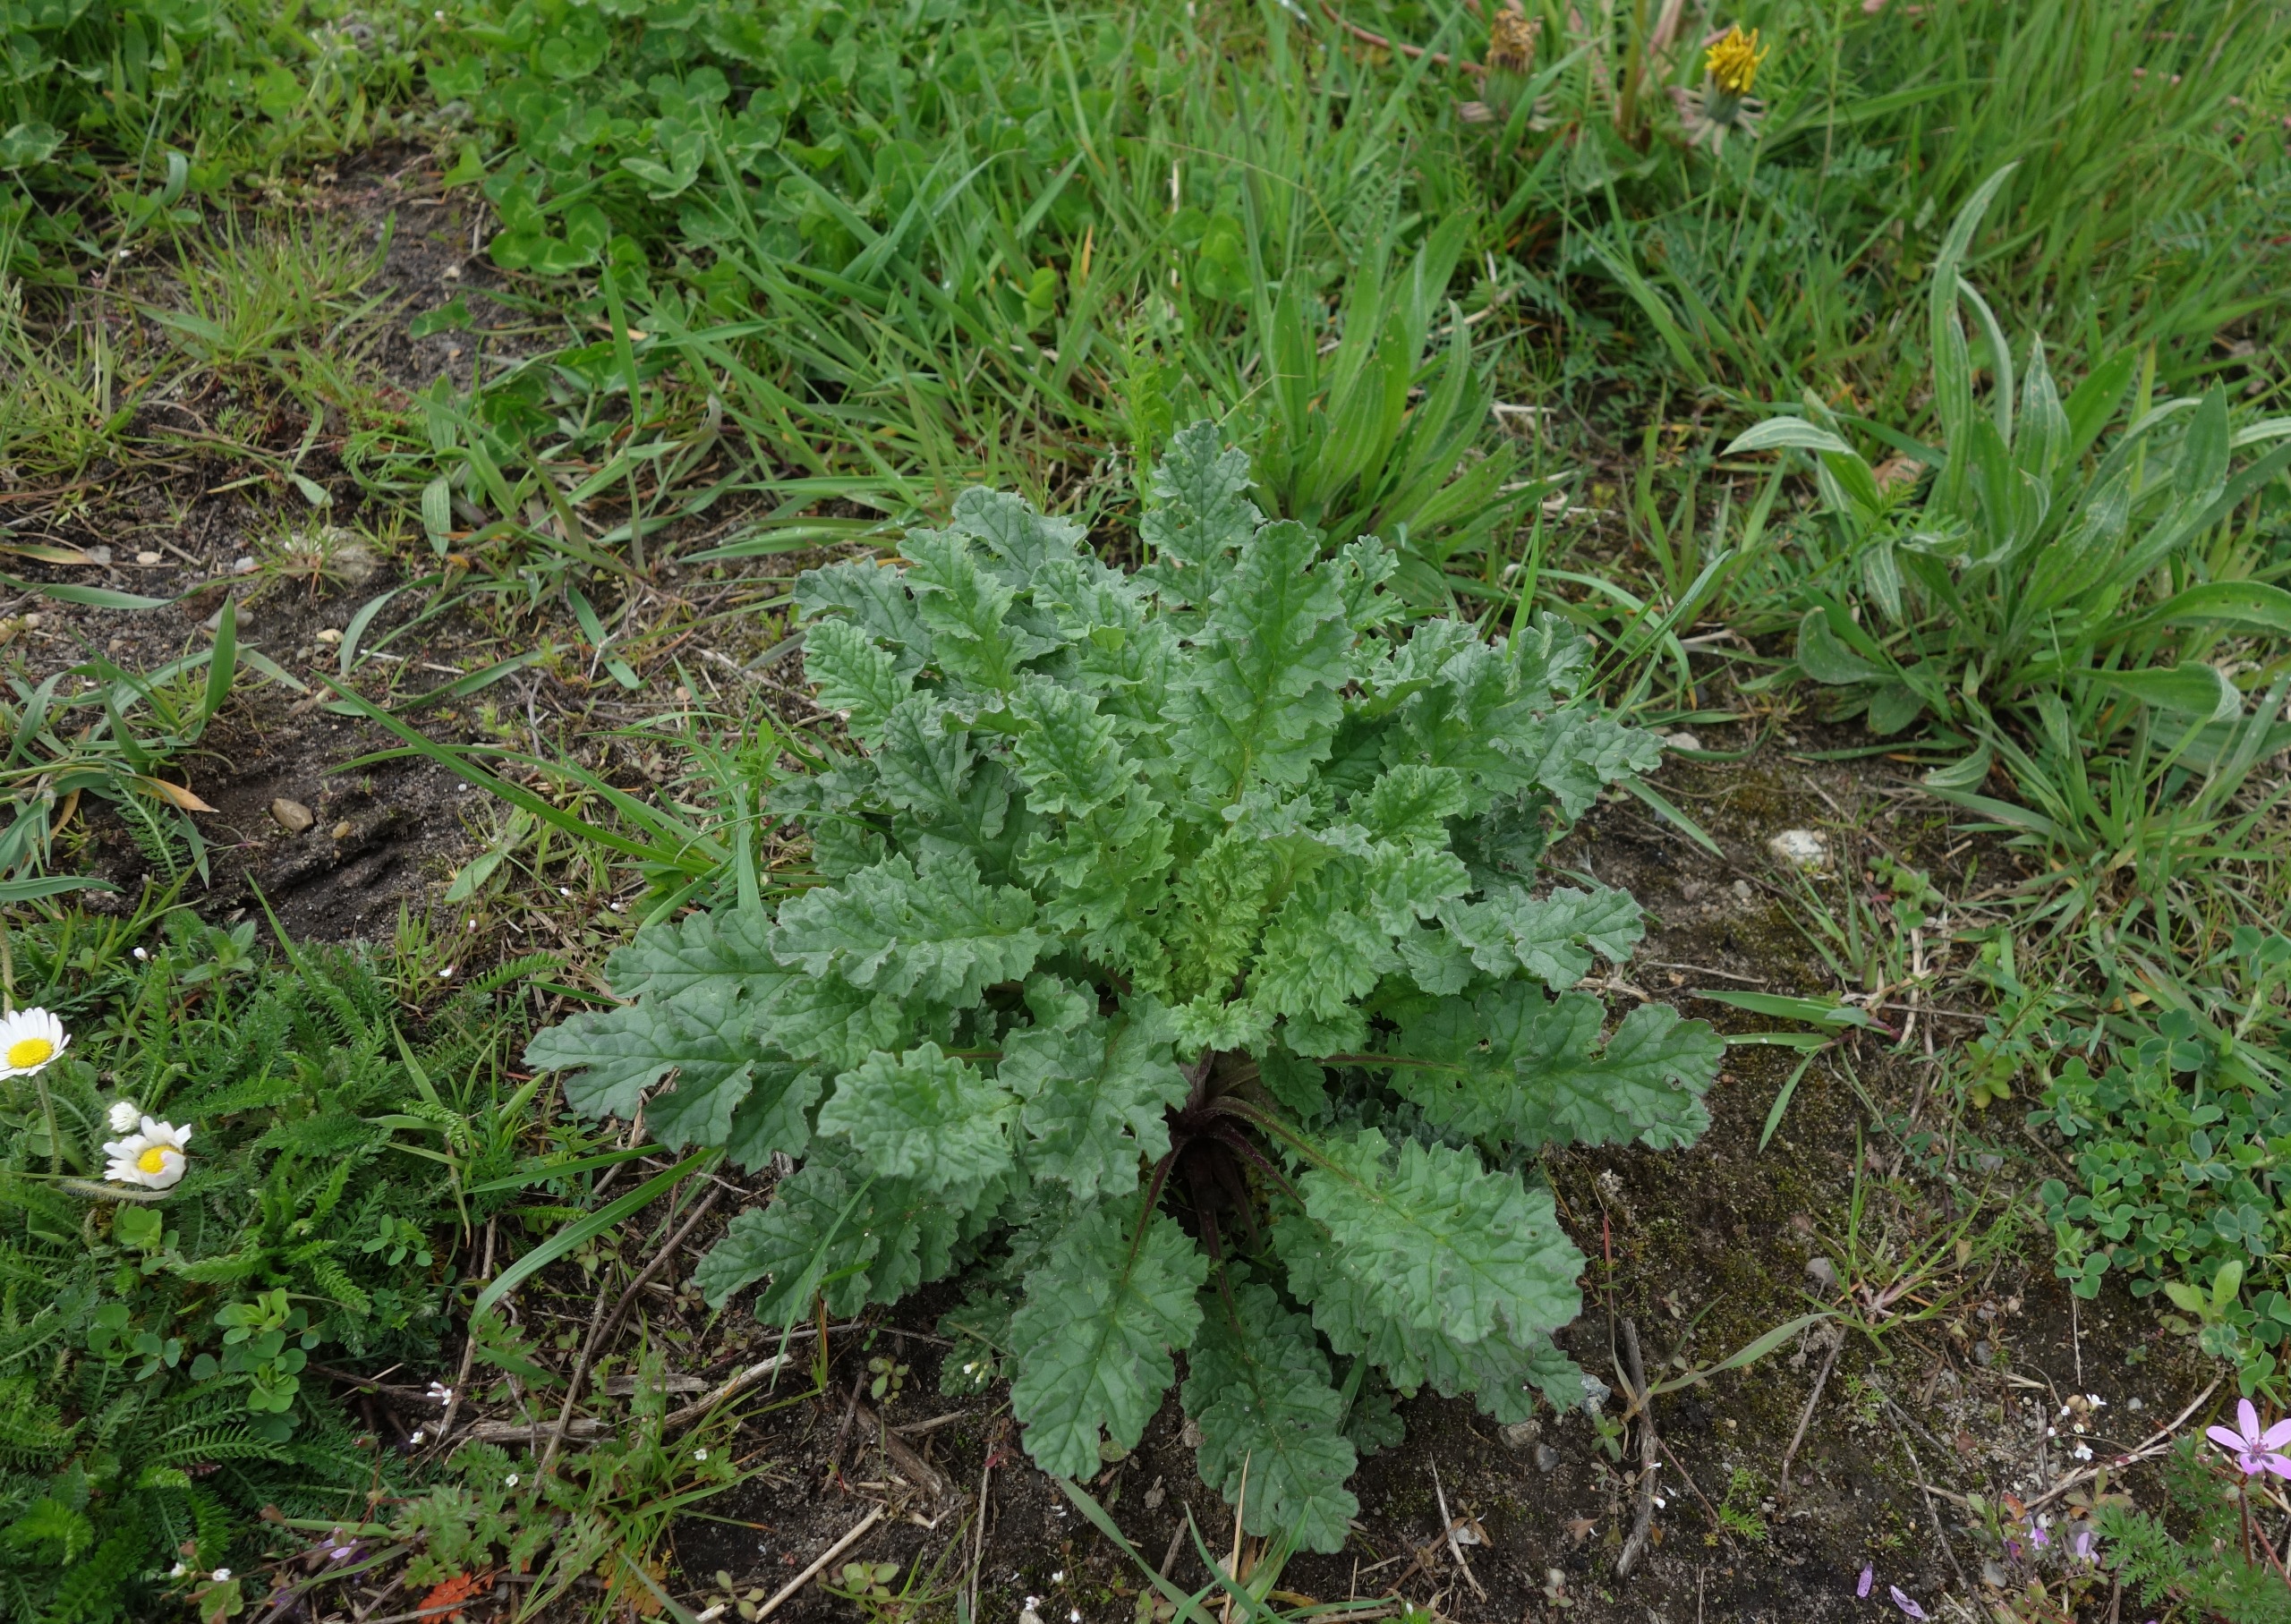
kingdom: Plantae
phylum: Tracheophyta
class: Magnoliopsida
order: Asterales
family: Asteraceae
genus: Jacobaea
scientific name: Jacobaea vulgaris
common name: Eng-brandbæger
